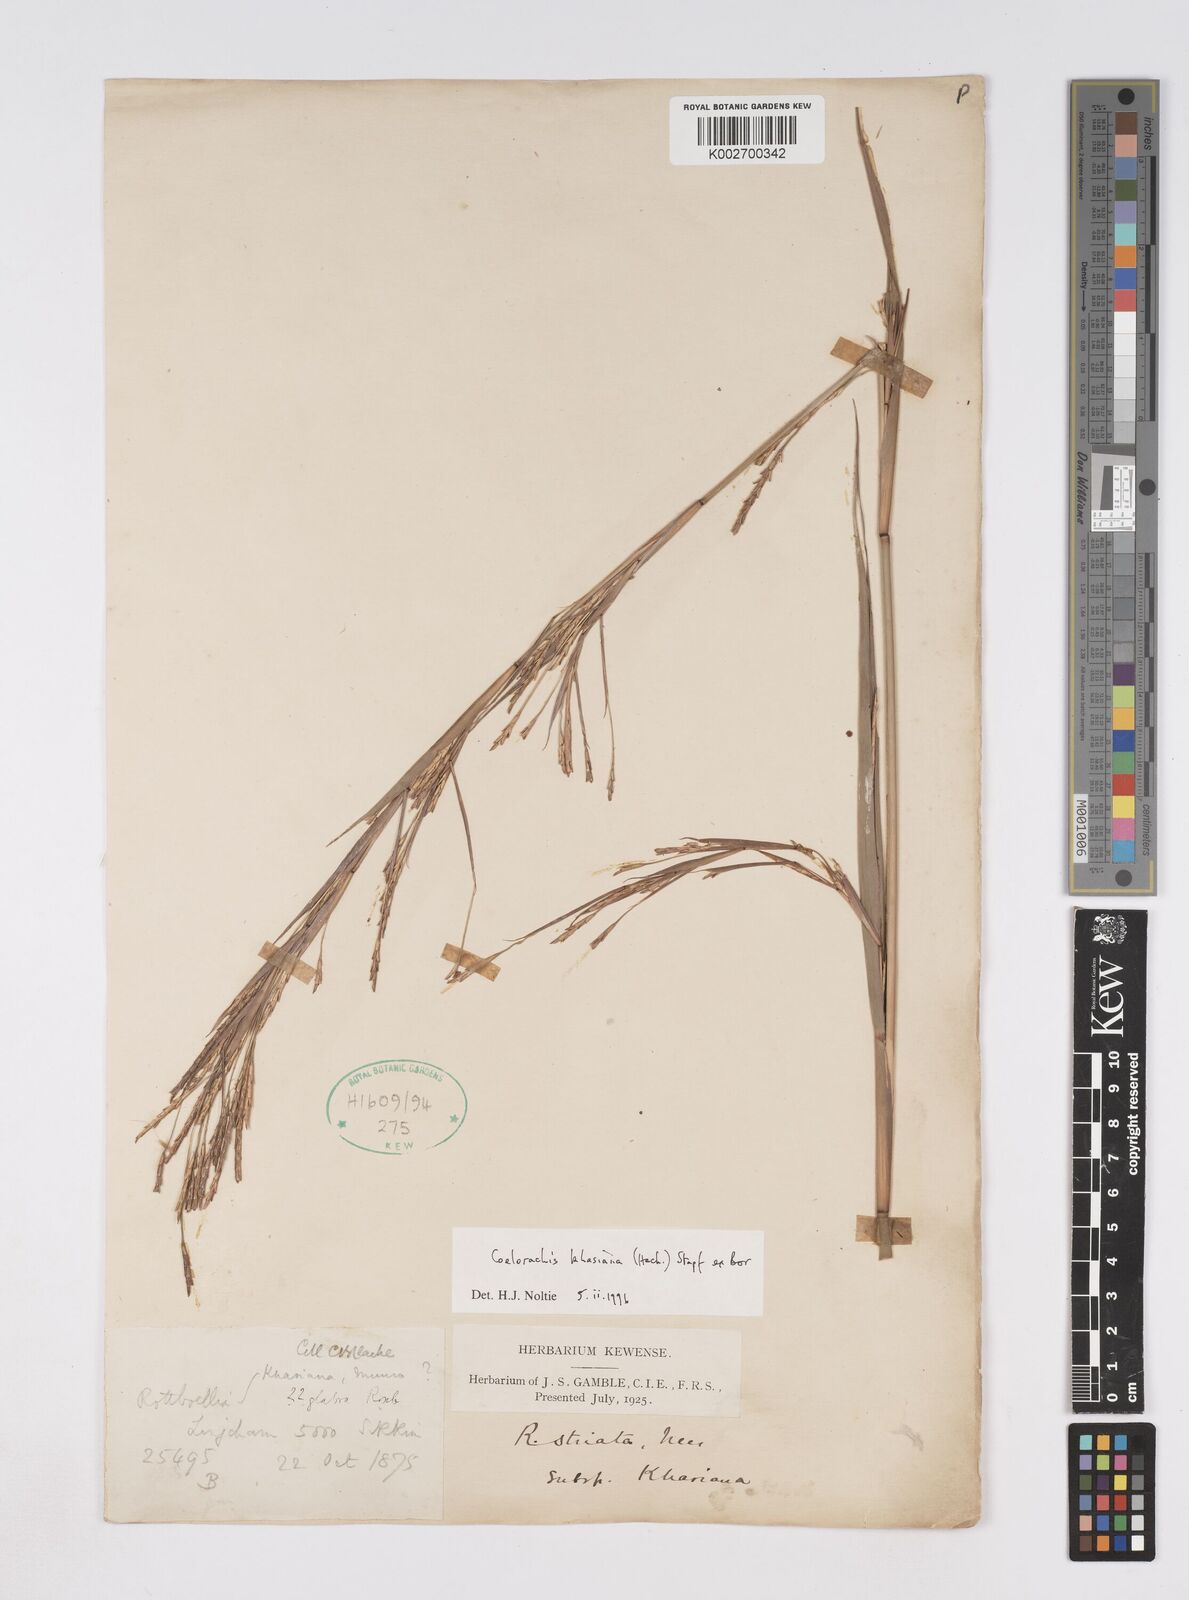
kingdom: Plantae
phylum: Tracheophyta
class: Liliopsida
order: Poales
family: Poaceae
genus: Rottboellia
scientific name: Rottboellia striata
